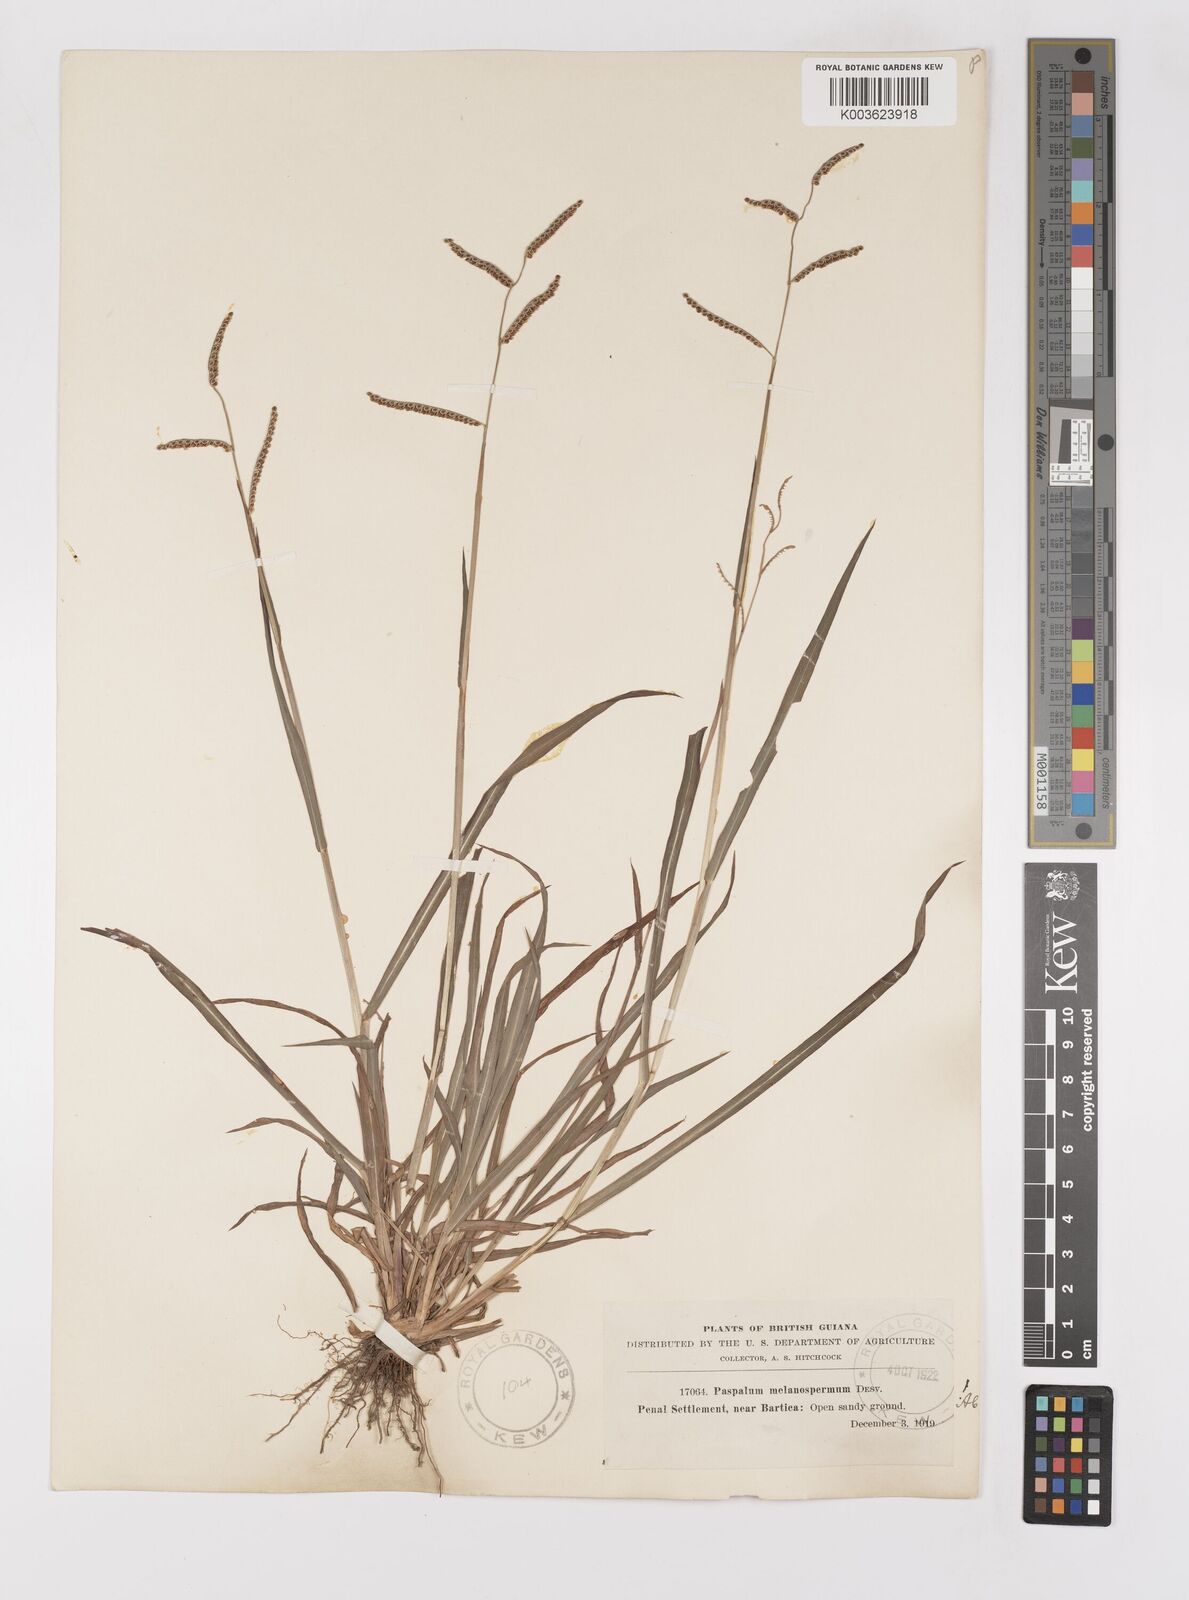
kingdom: Plantae
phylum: Tracheophyta
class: Liliopsida
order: Poales
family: Poaceae
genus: Paspalum
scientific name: Paspalum melanospermum
